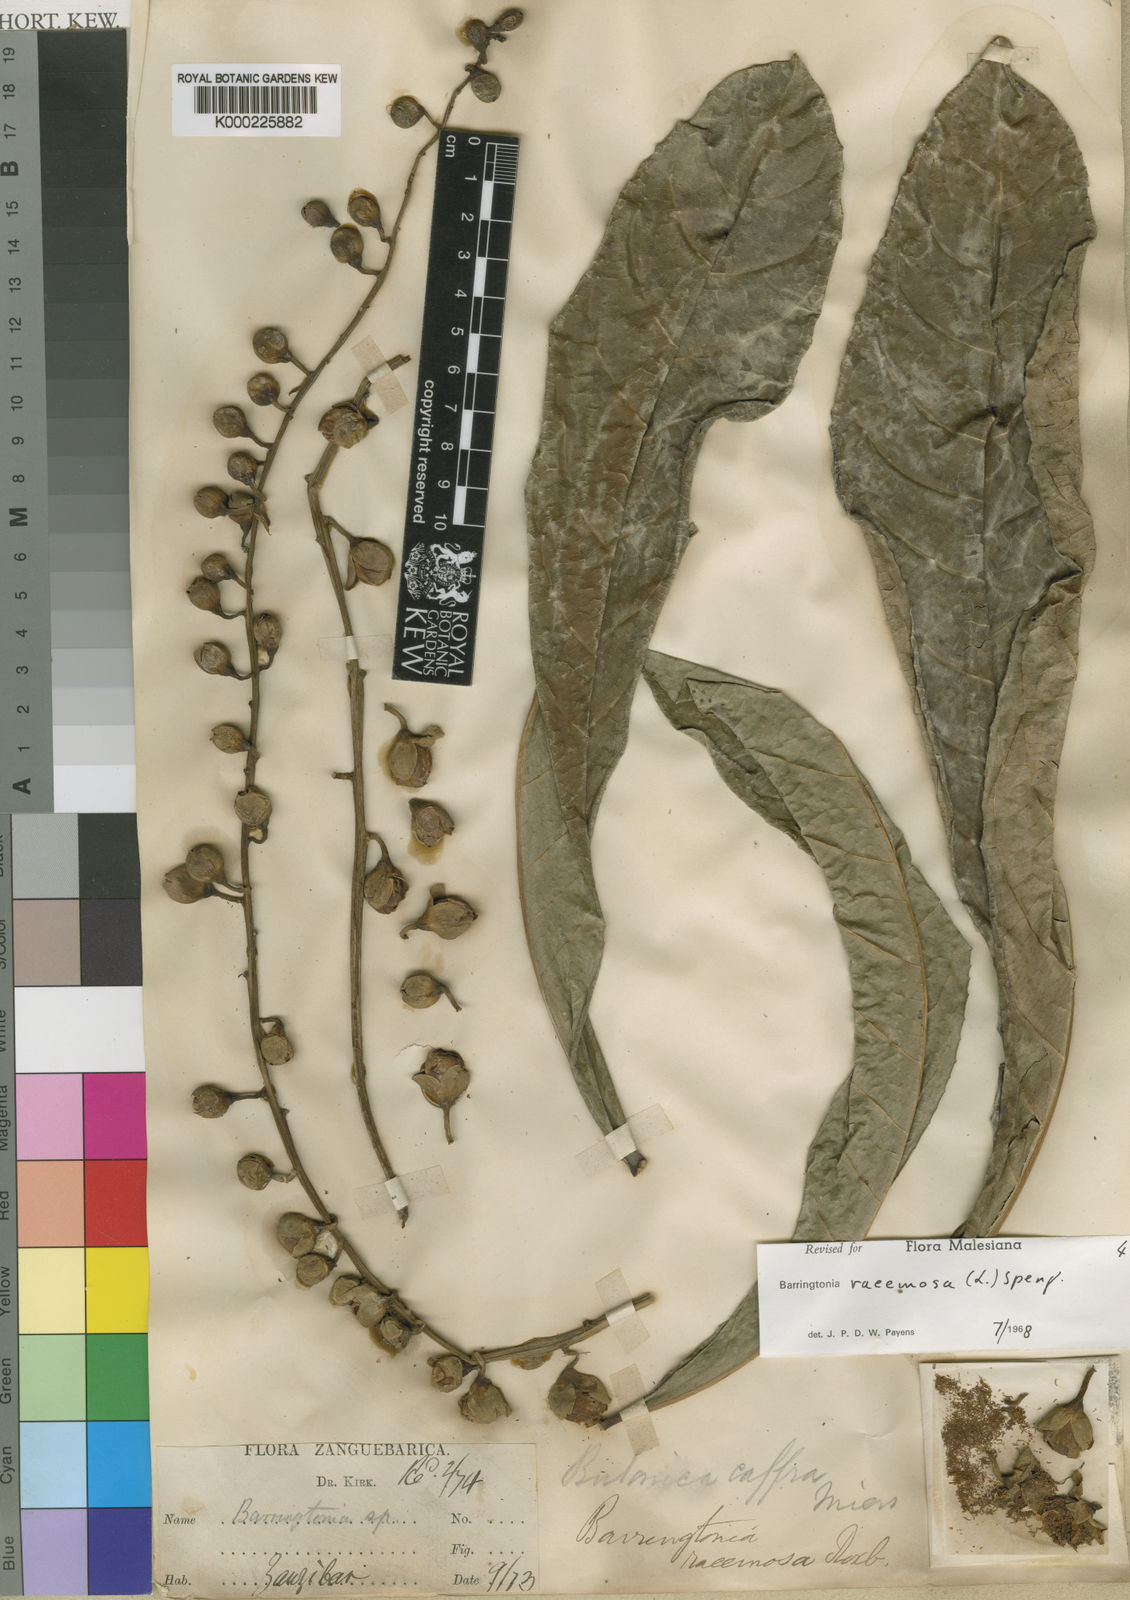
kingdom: Plantae
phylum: Tracheophyta
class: Magnoliopsida
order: Ericales
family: Lecythidaceae
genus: Barringtonia
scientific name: Barringtonia racemosa
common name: Brackwater mangrove
